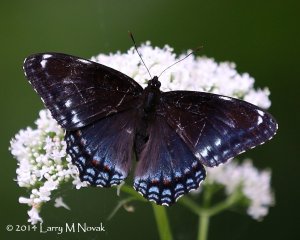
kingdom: Animalia
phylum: Arthropoda
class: Insecta
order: Lepidoptera
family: Nymphalidae
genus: Limenitis
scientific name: Limenitis astyanax
